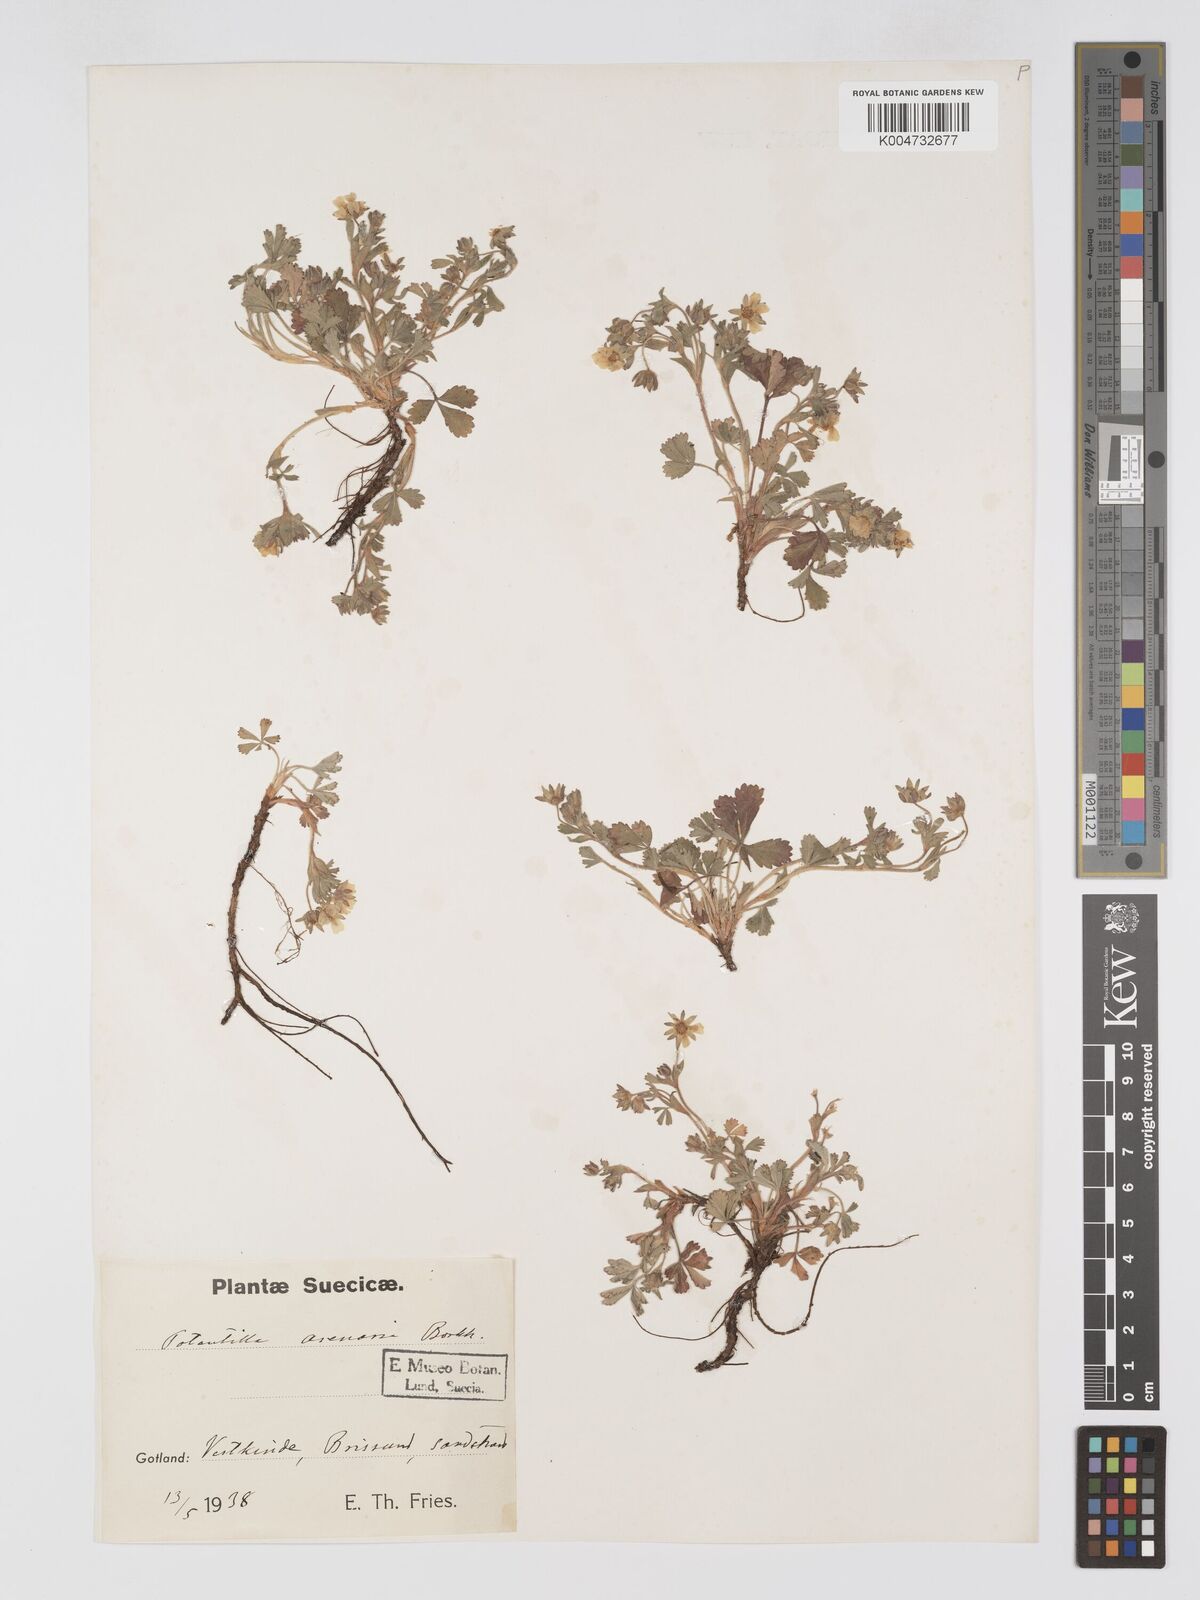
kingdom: Plantae
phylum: Tracheophyta
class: Magnoliopsida
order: Rosales
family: Rosaceae
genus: Potentilla
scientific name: Potentilla cinerea
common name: Ashy cinquefoil
